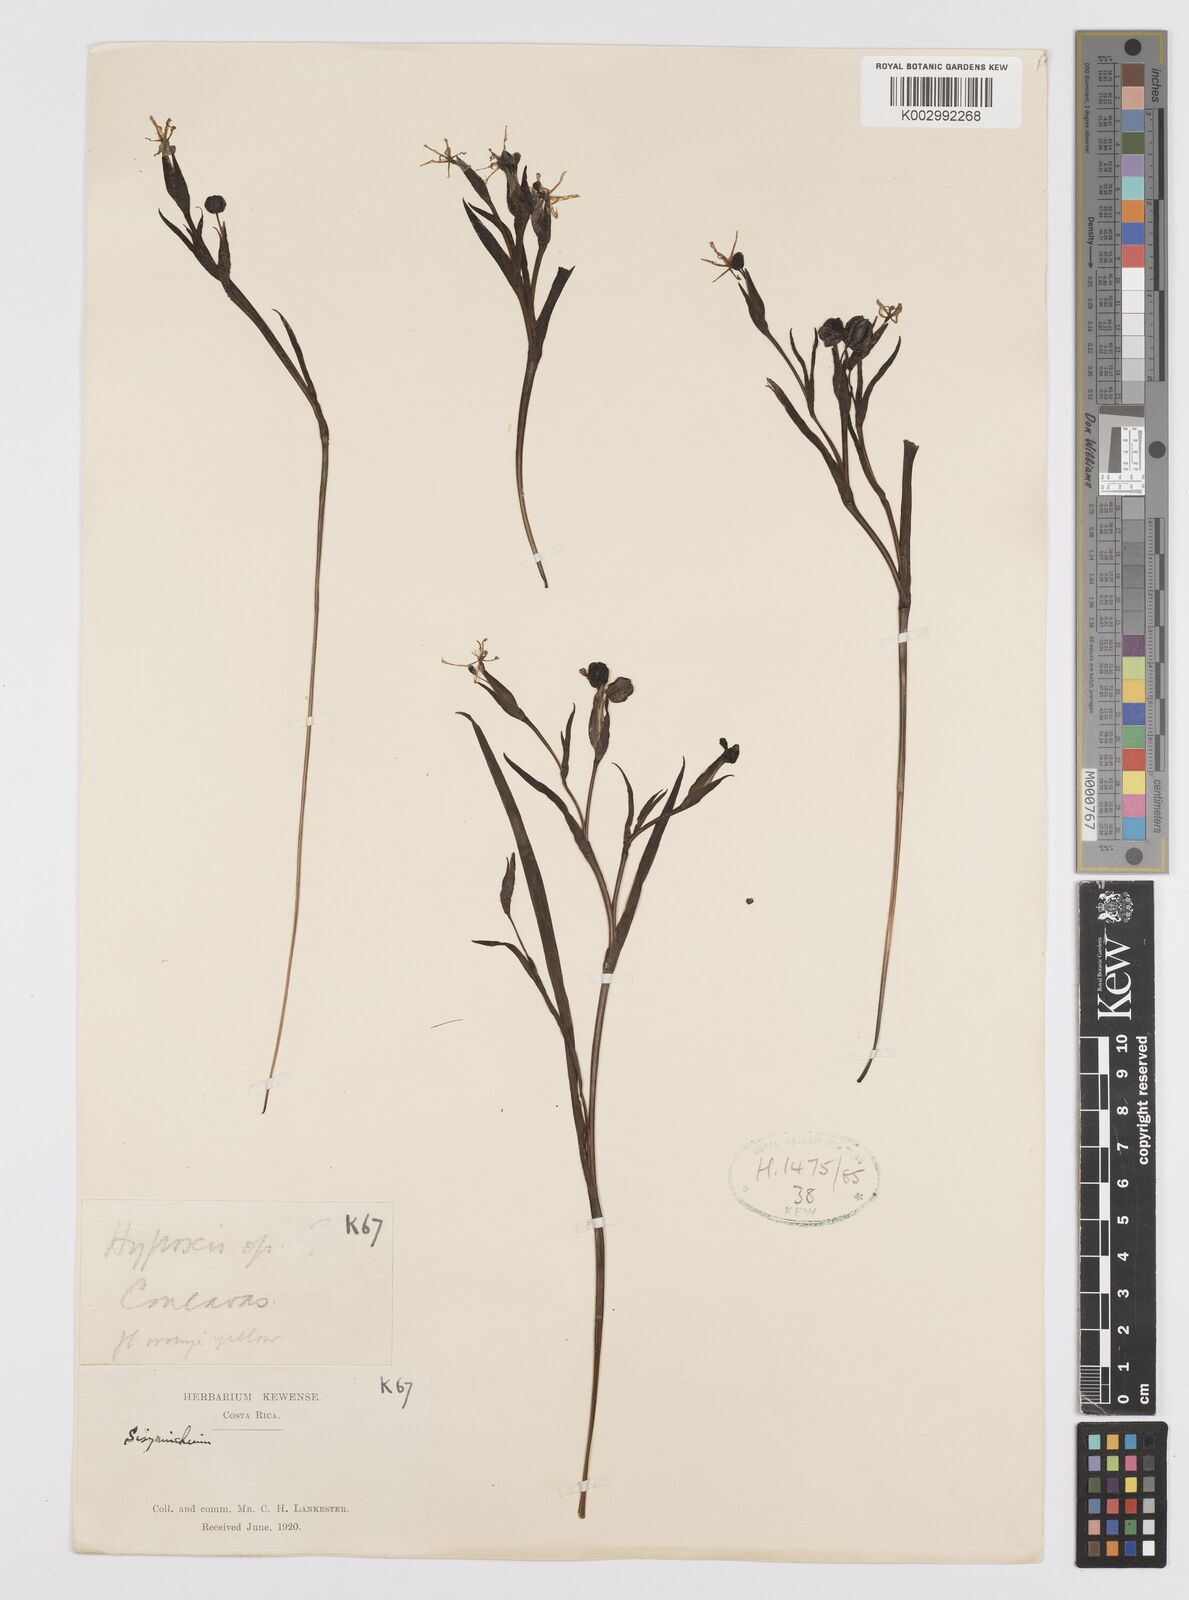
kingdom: Plantae
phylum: Tracheophyta
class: Liliopsida
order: Asparagales
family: Iridaceae
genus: Sisyrinchium
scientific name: Sisyrinchium
